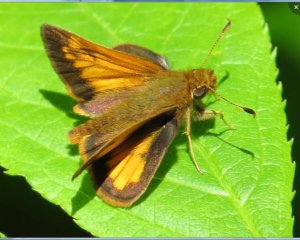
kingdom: Animalia
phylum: Arthropoda
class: Insecta
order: Lepidoptera
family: Hesperiidae
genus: Lon
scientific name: Lon hobomok
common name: Hobomok Skipper
